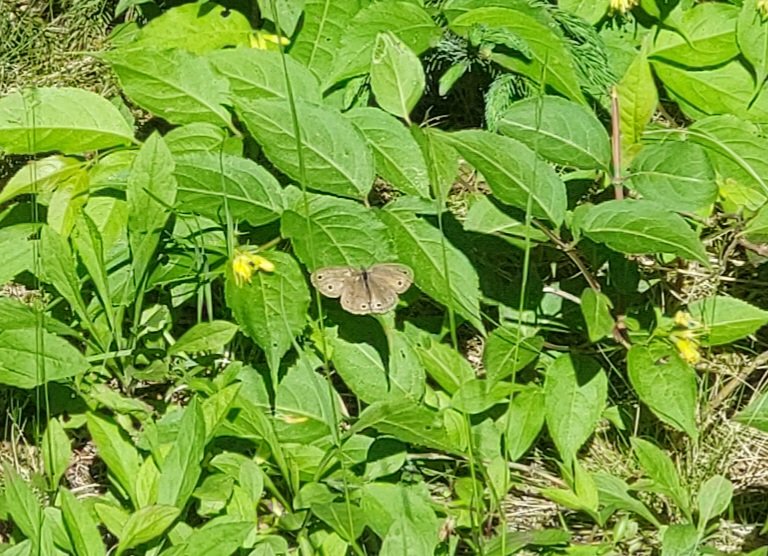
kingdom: Animalia
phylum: Arthropoda
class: Insecta
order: Lepidoptera
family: Nymphalidae
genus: Euptychia
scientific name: Euptychia cymela
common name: Little Wood Satyr
